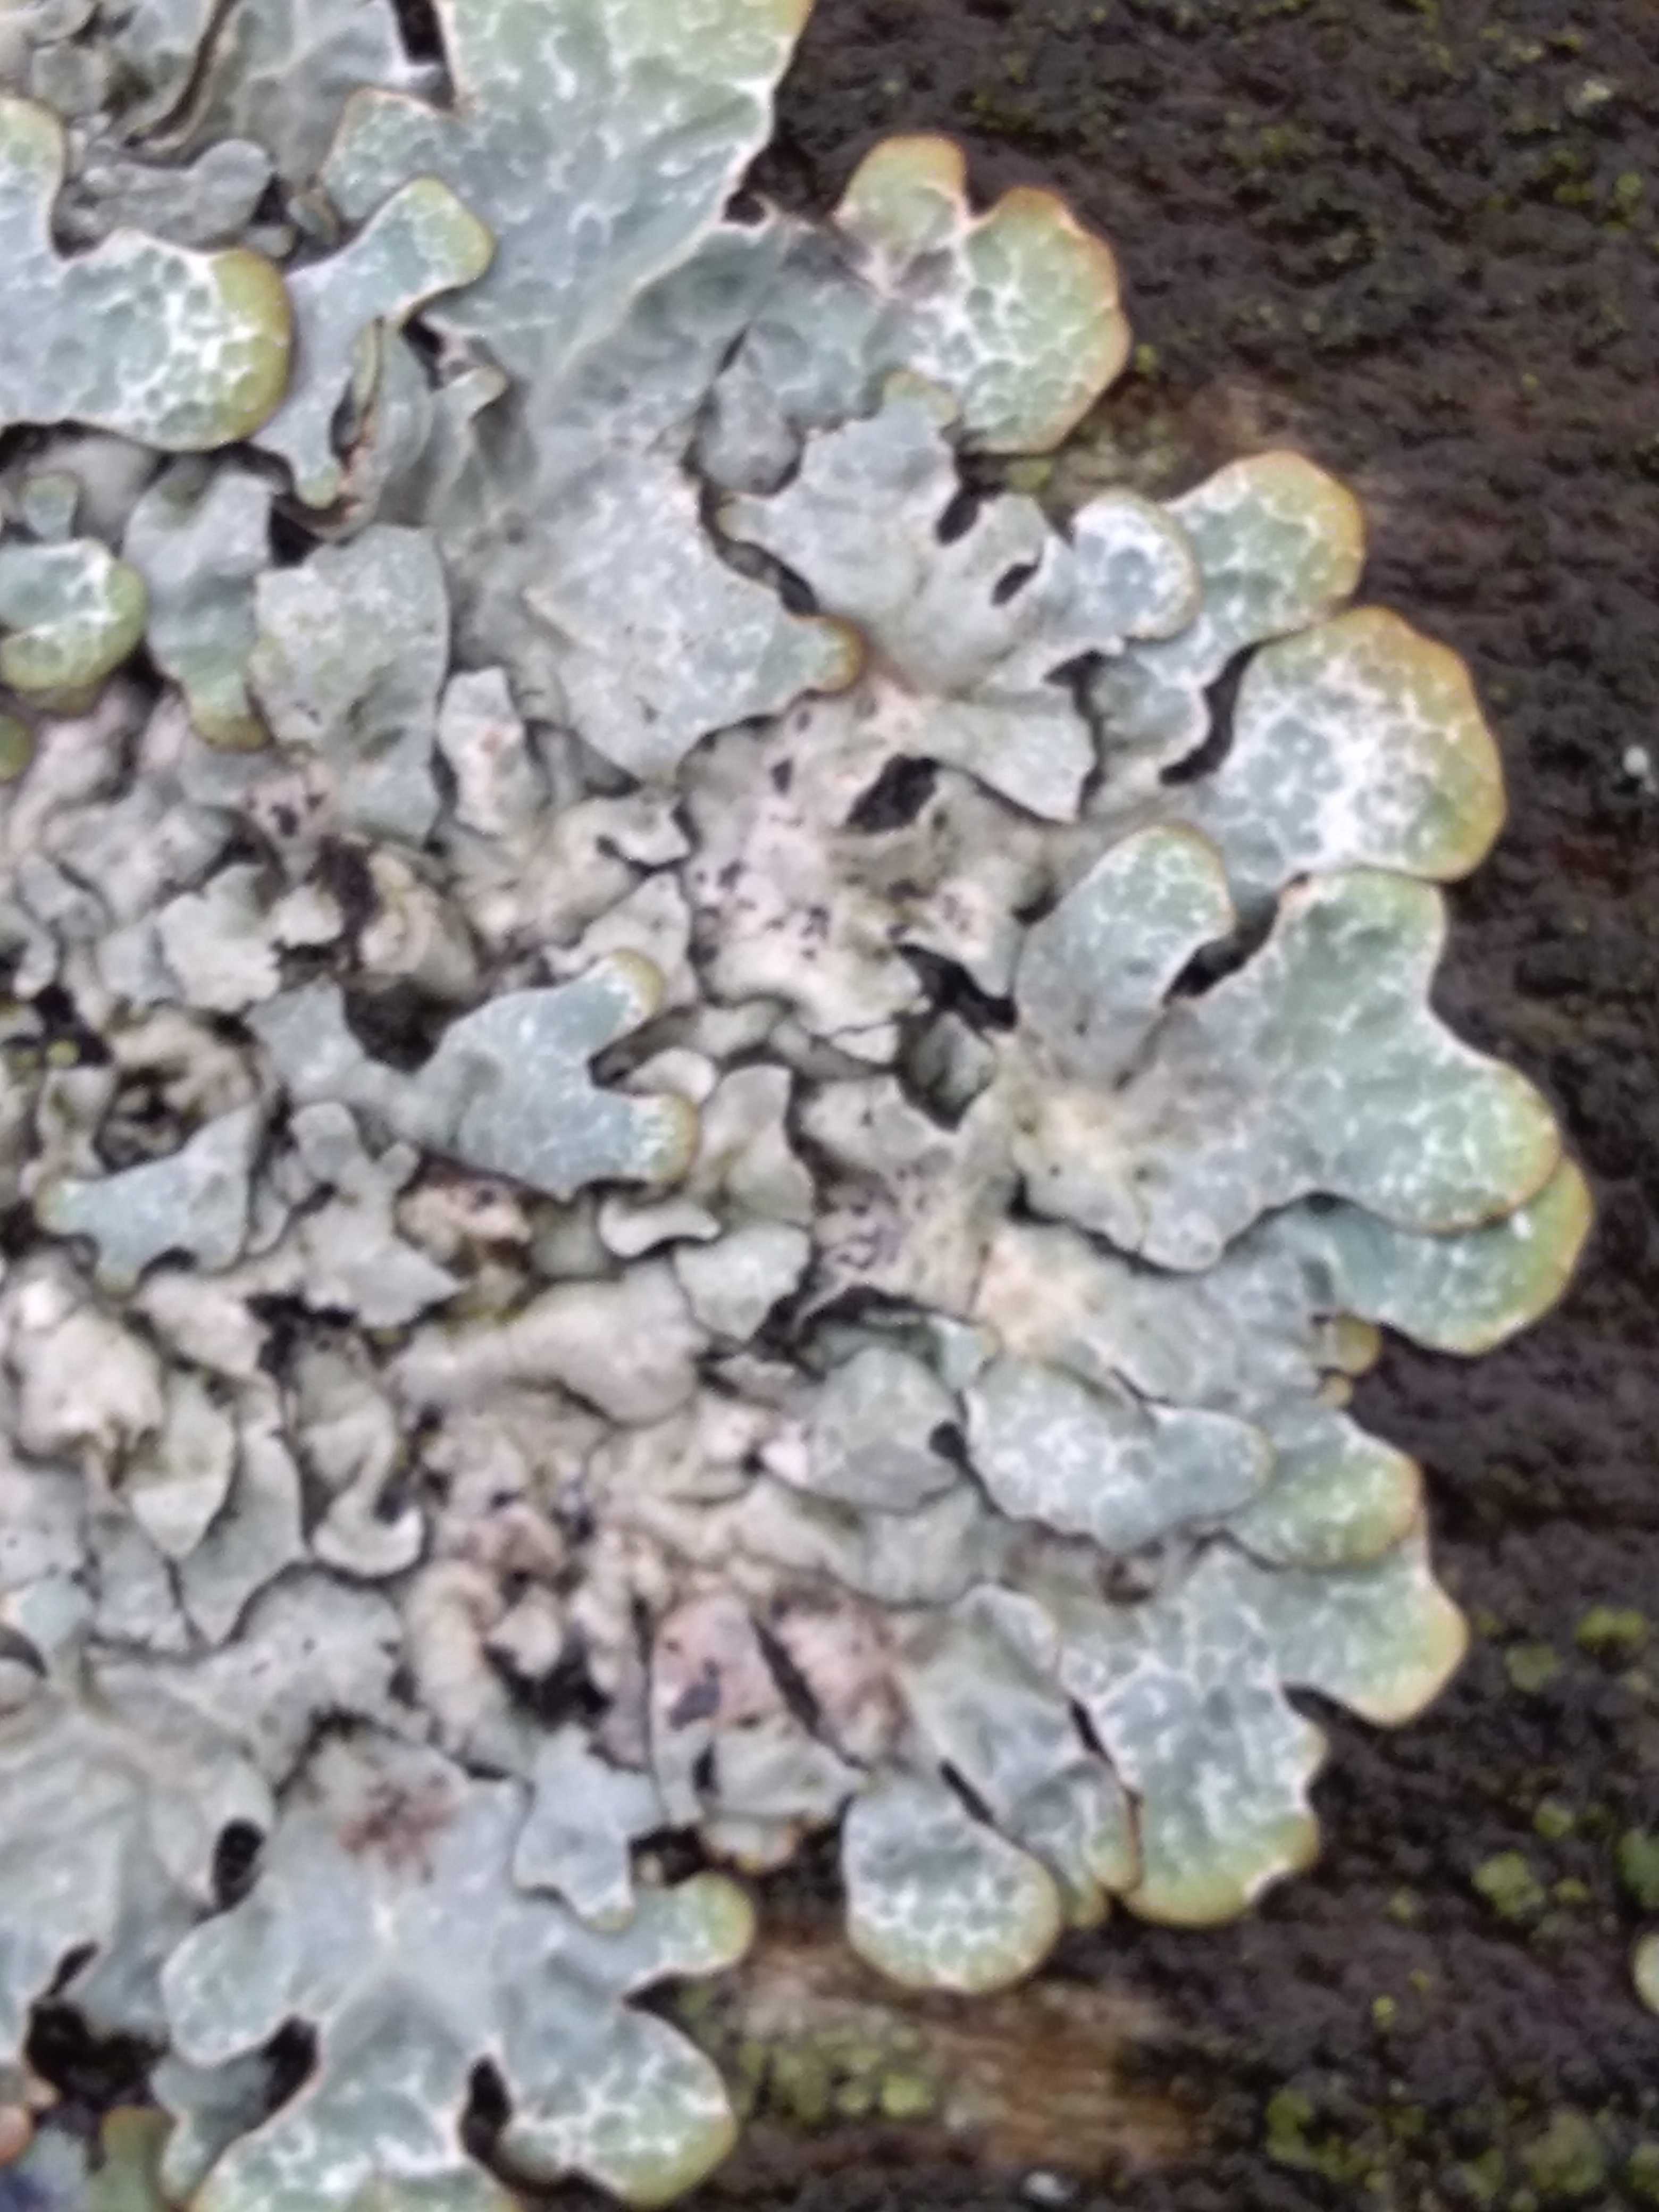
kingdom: Fungi
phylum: Ascomycota
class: Lecanoromycetes
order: Lecanorales
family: Parmeliaceae
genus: Parmelia
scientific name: Parmelia sulcata
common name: rynket skållav
